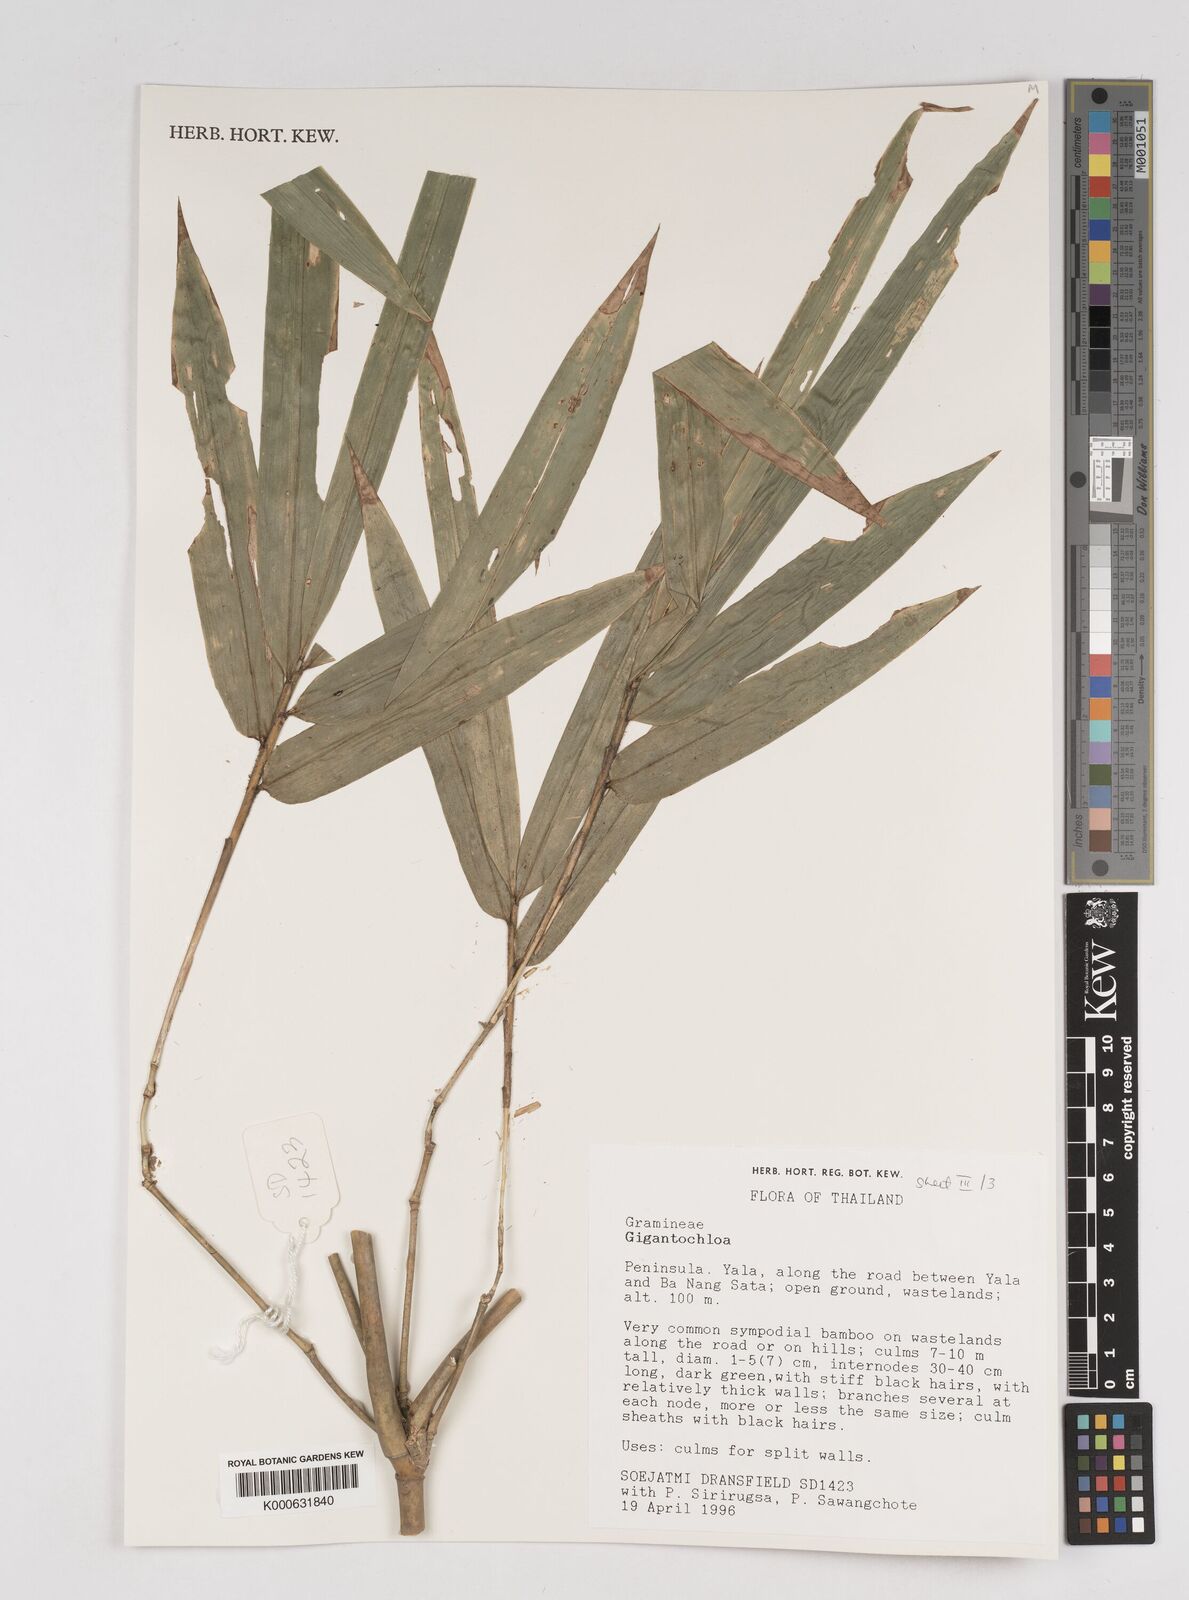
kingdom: Plantae
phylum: Tracheophyta
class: Liliopsida
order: Poales
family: Poaceae
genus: Gigantochloa
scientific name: Gigantochloa
